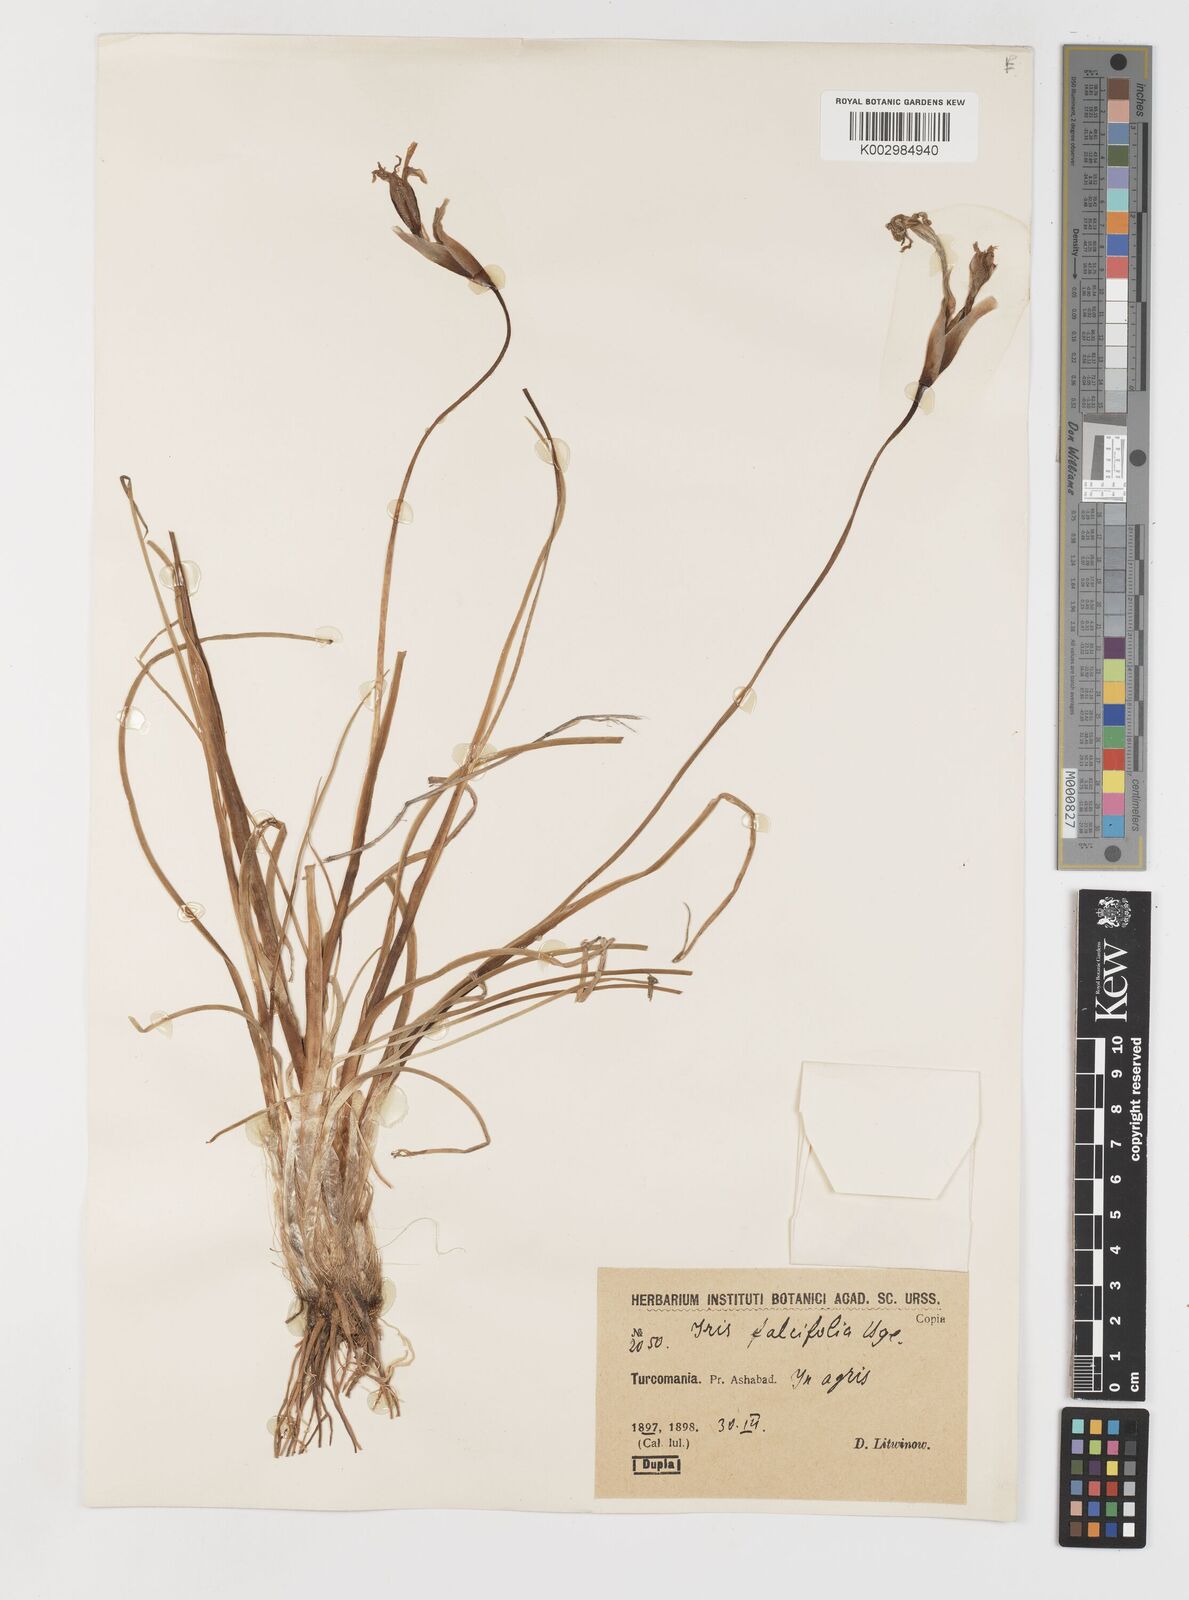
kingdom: Plantae
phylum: Tracheophyta
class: Liliopsida
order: Asparagales
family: Iridaceae
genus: Iris
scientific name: Iris longiscapa
